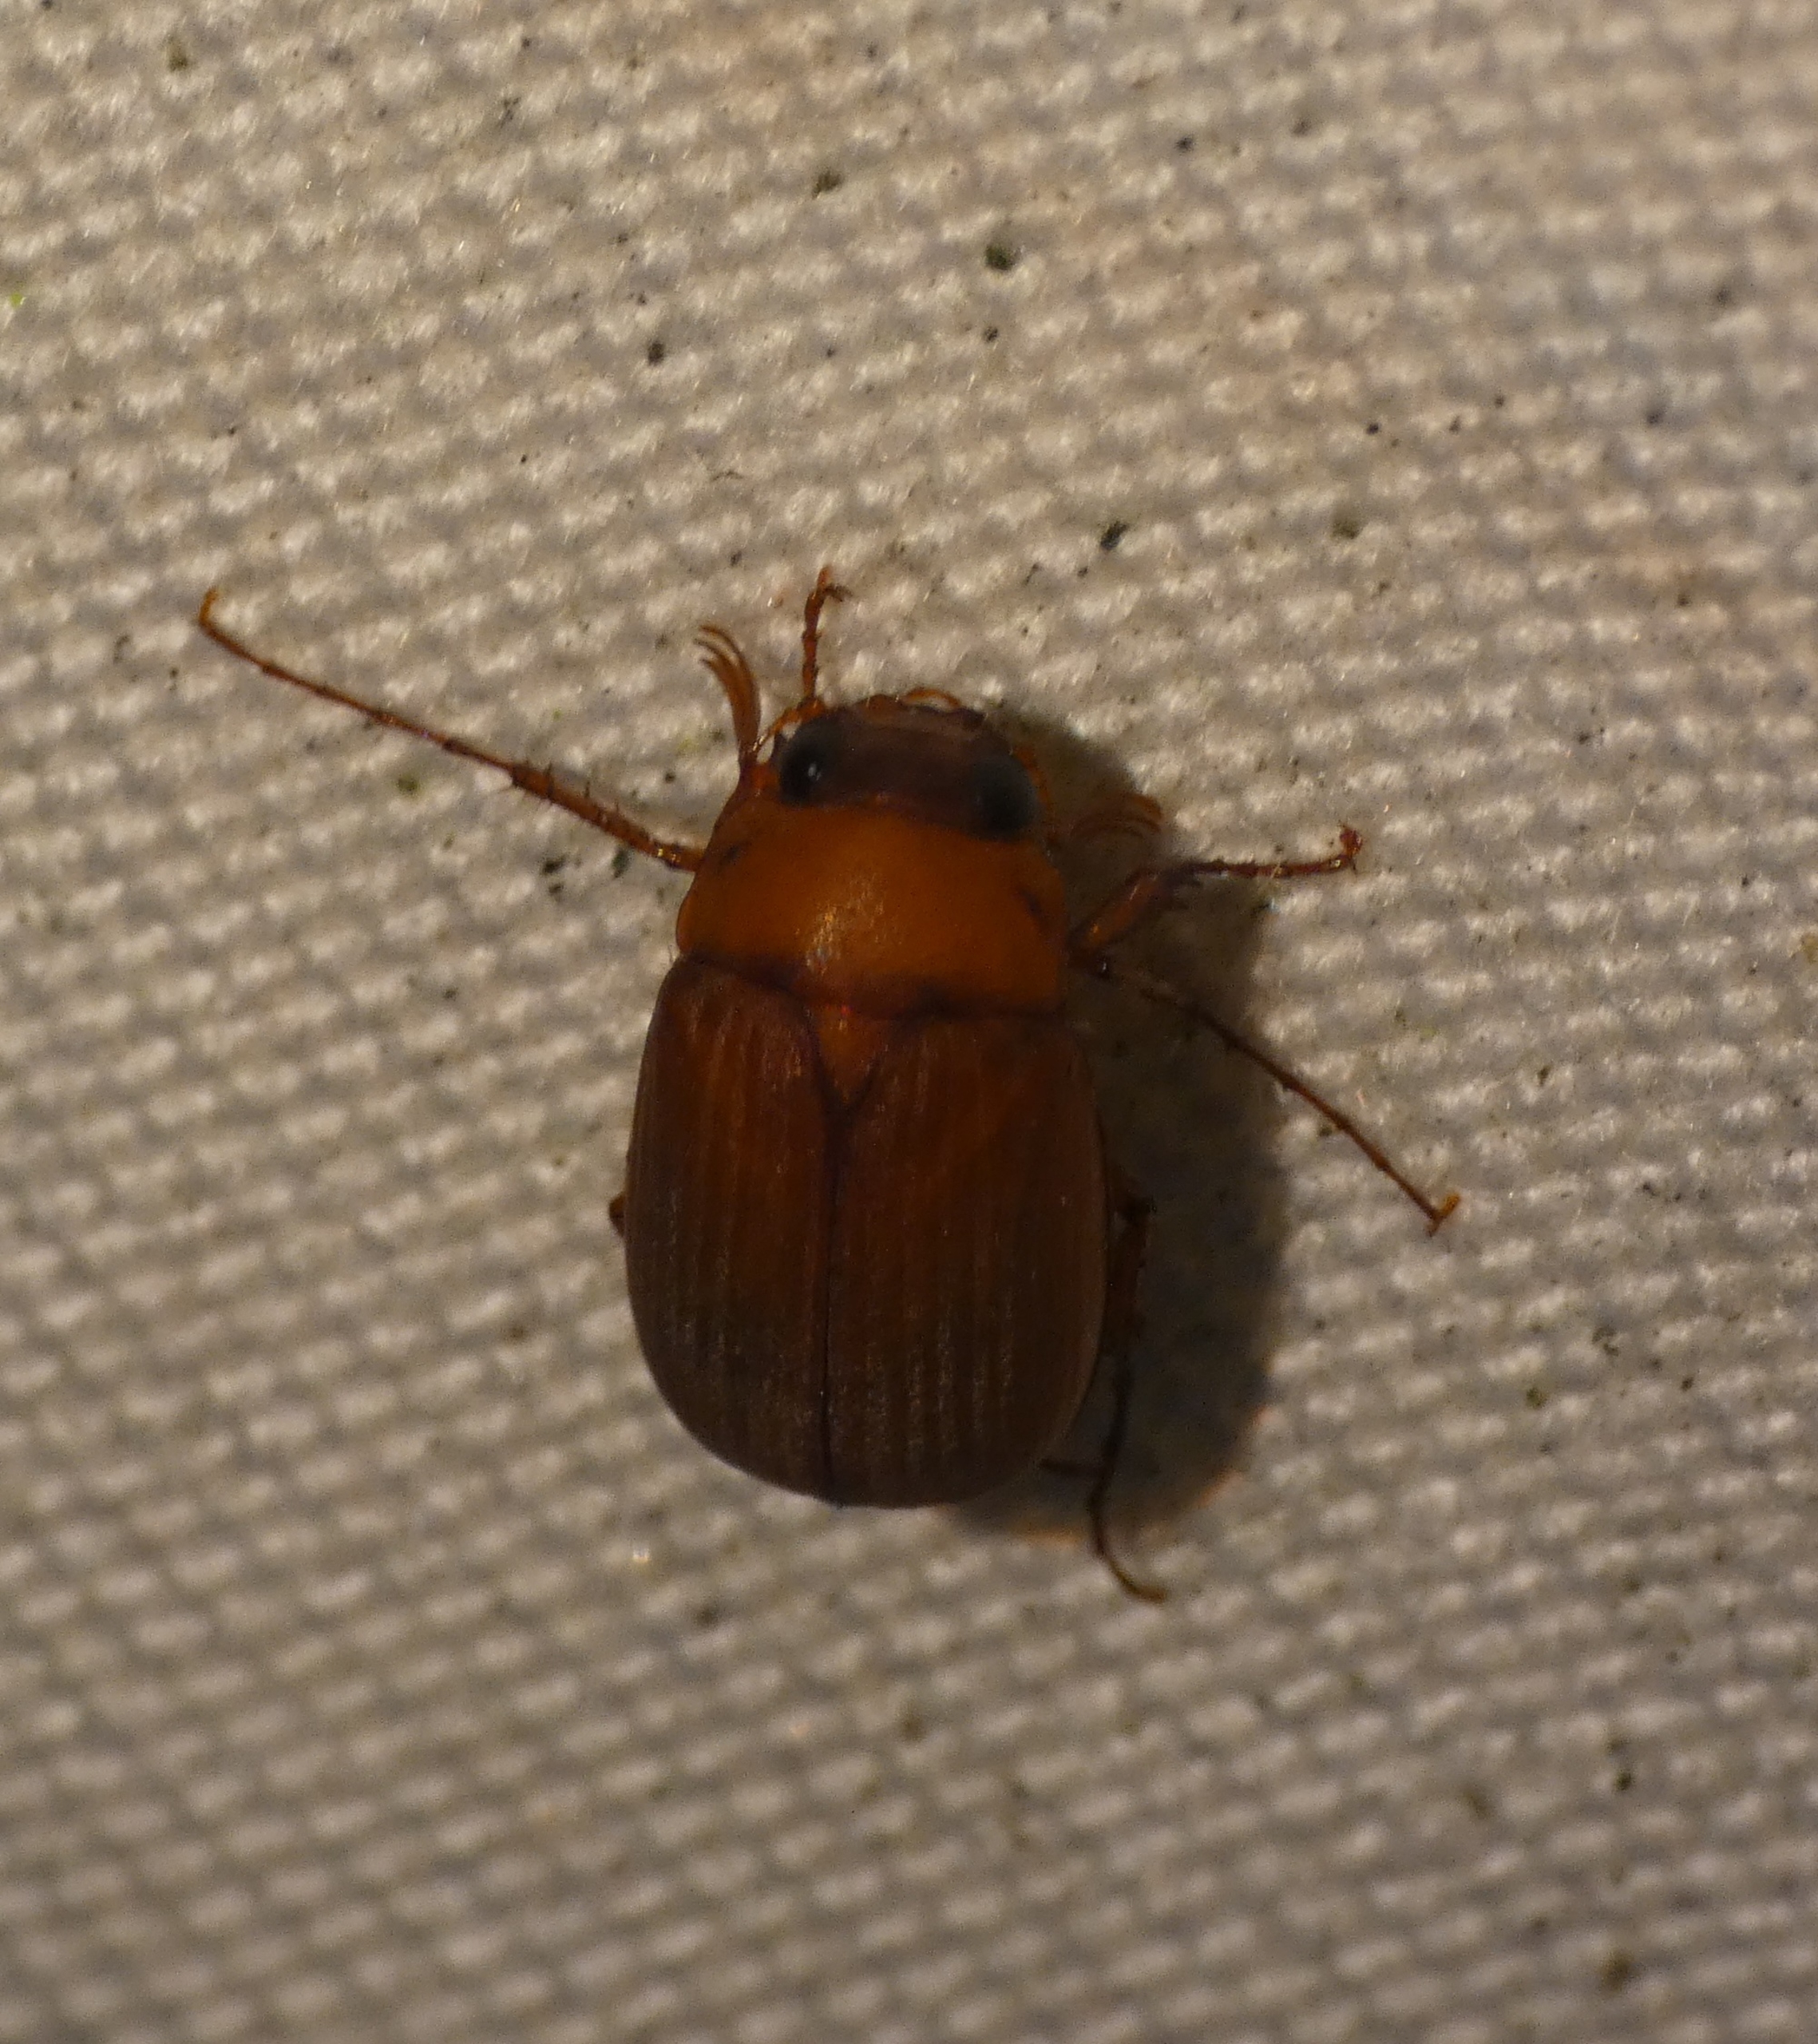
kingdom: Animalia
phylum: Arthropoda
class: Insecta
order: Coleoptera
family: Scarabaeidae
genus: Serica
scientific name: Serica brunnea
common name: Natoldenborre
